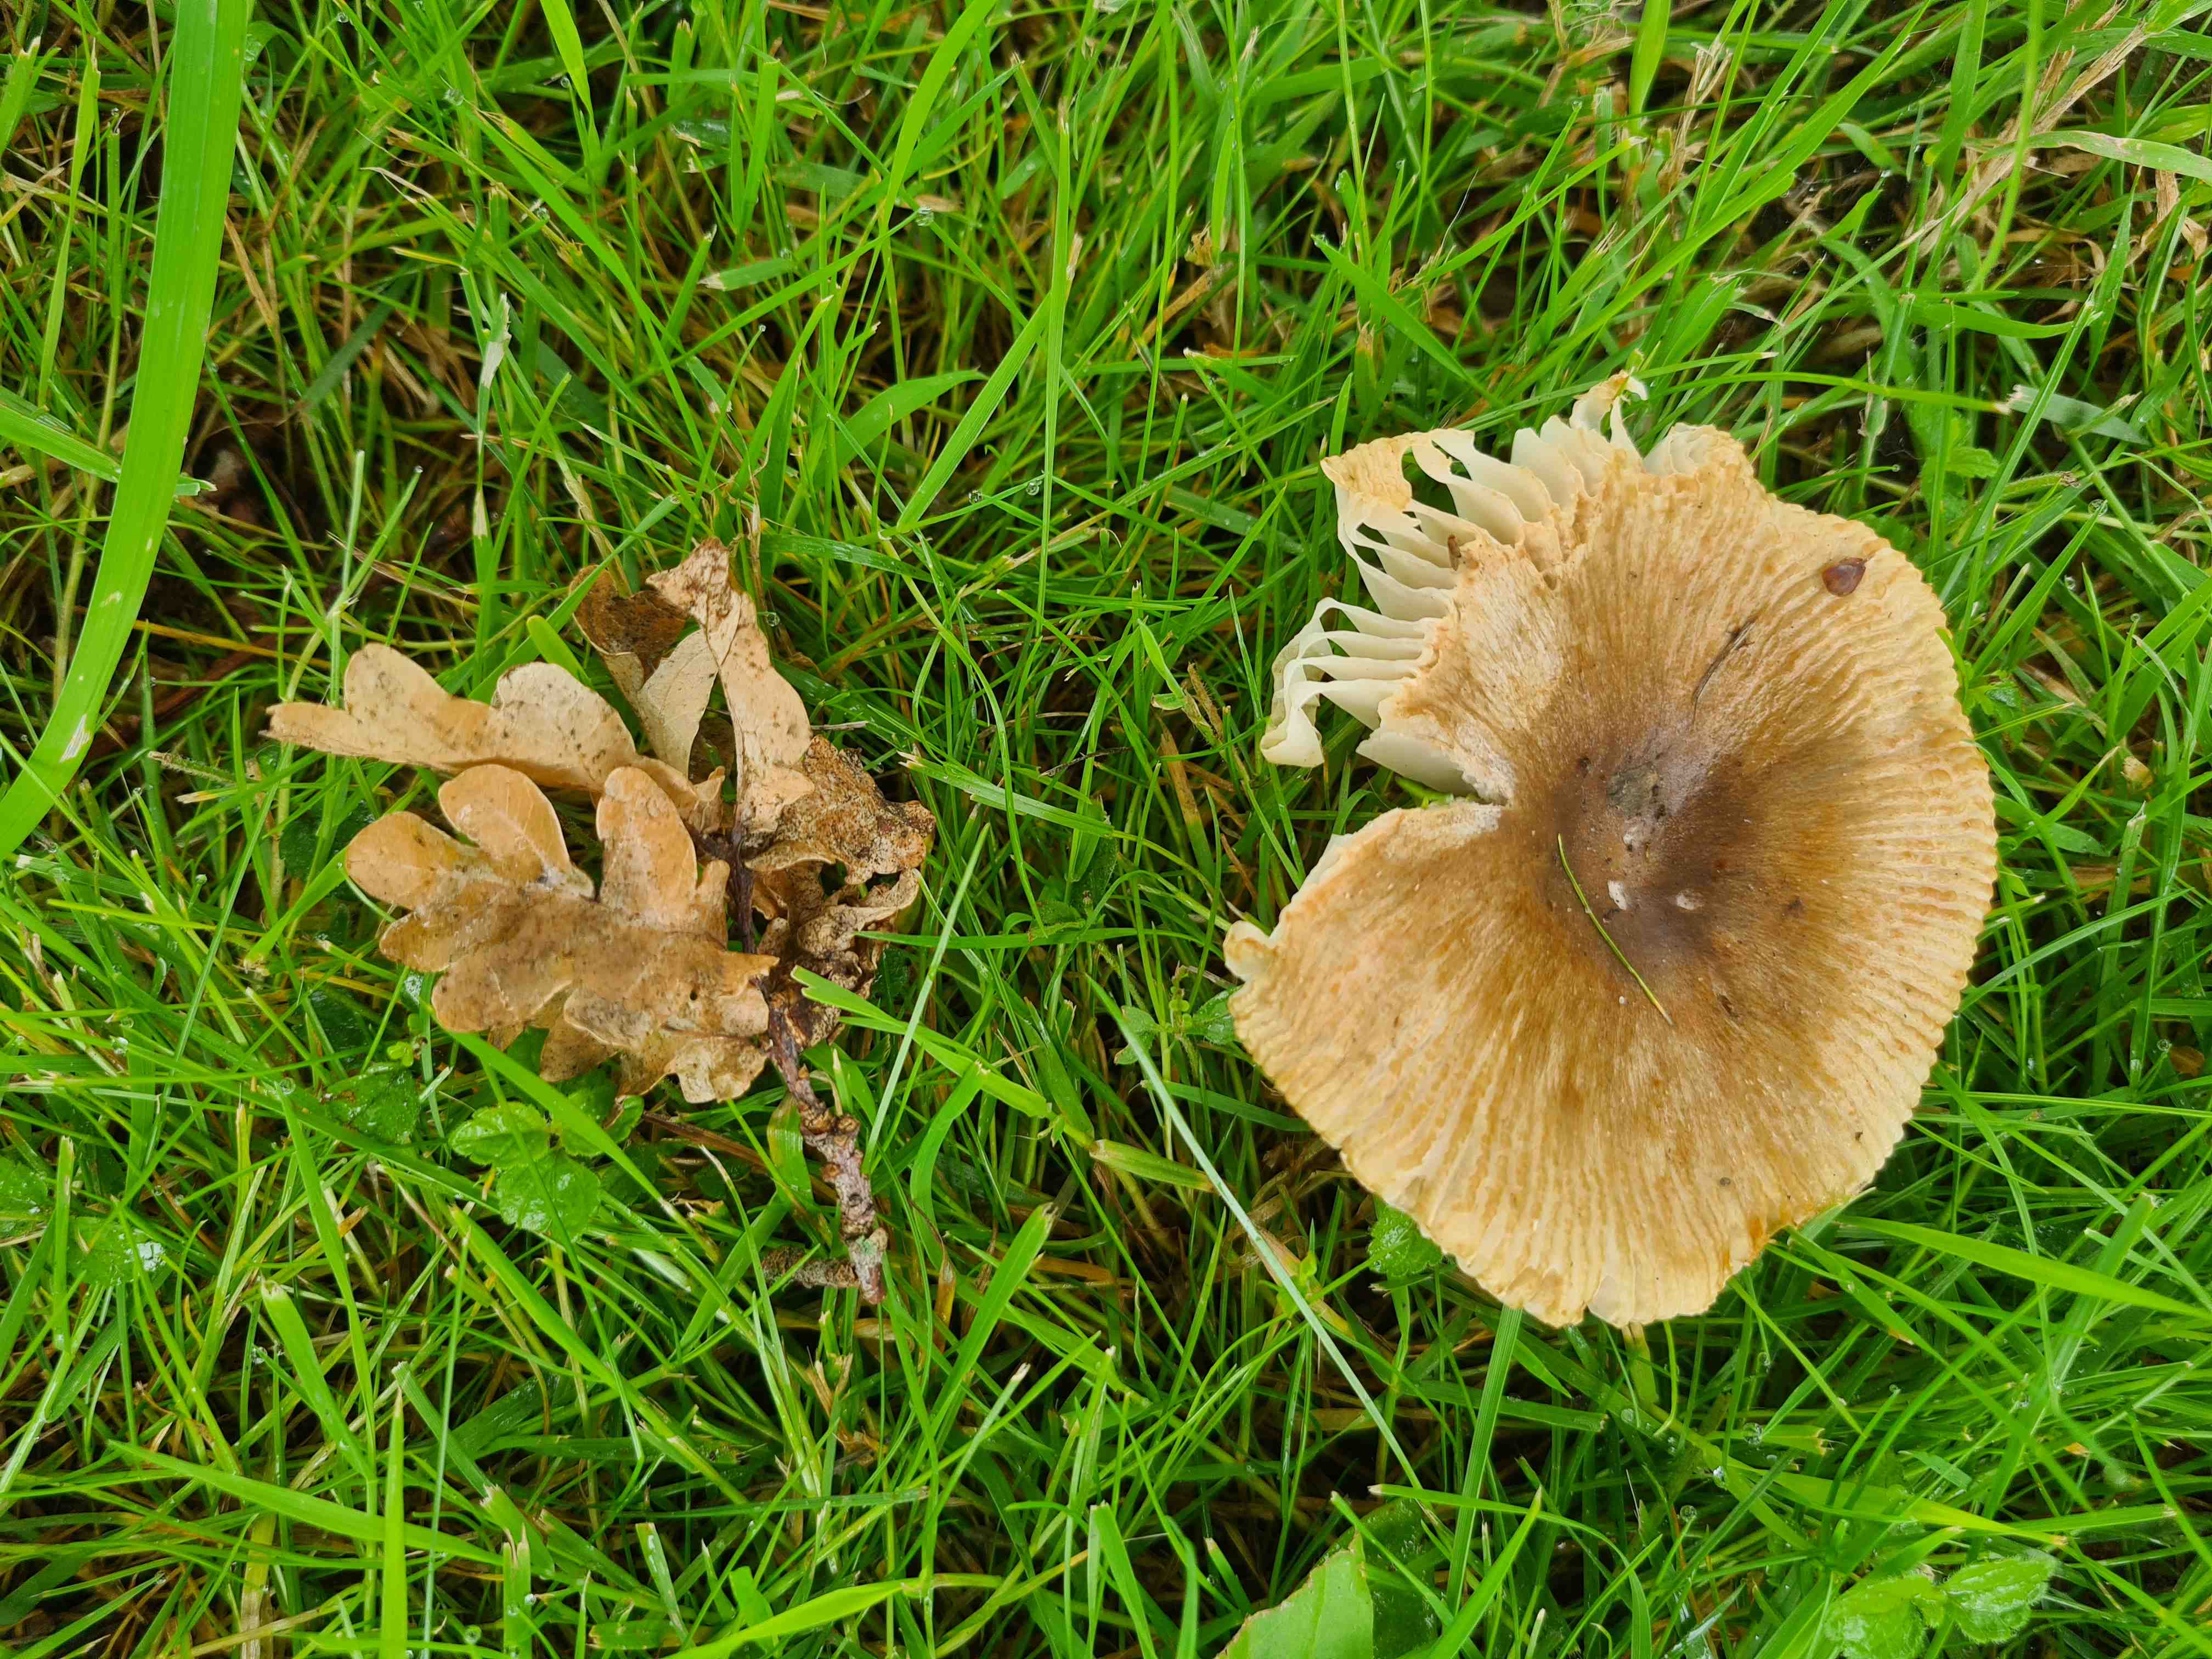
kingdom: Fungi
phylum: Basidiomycota
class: Agaricomycetes
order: Russulales
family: Russulaceae
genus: Russula
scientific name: Russula recondita
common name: mild kam-skørhat
